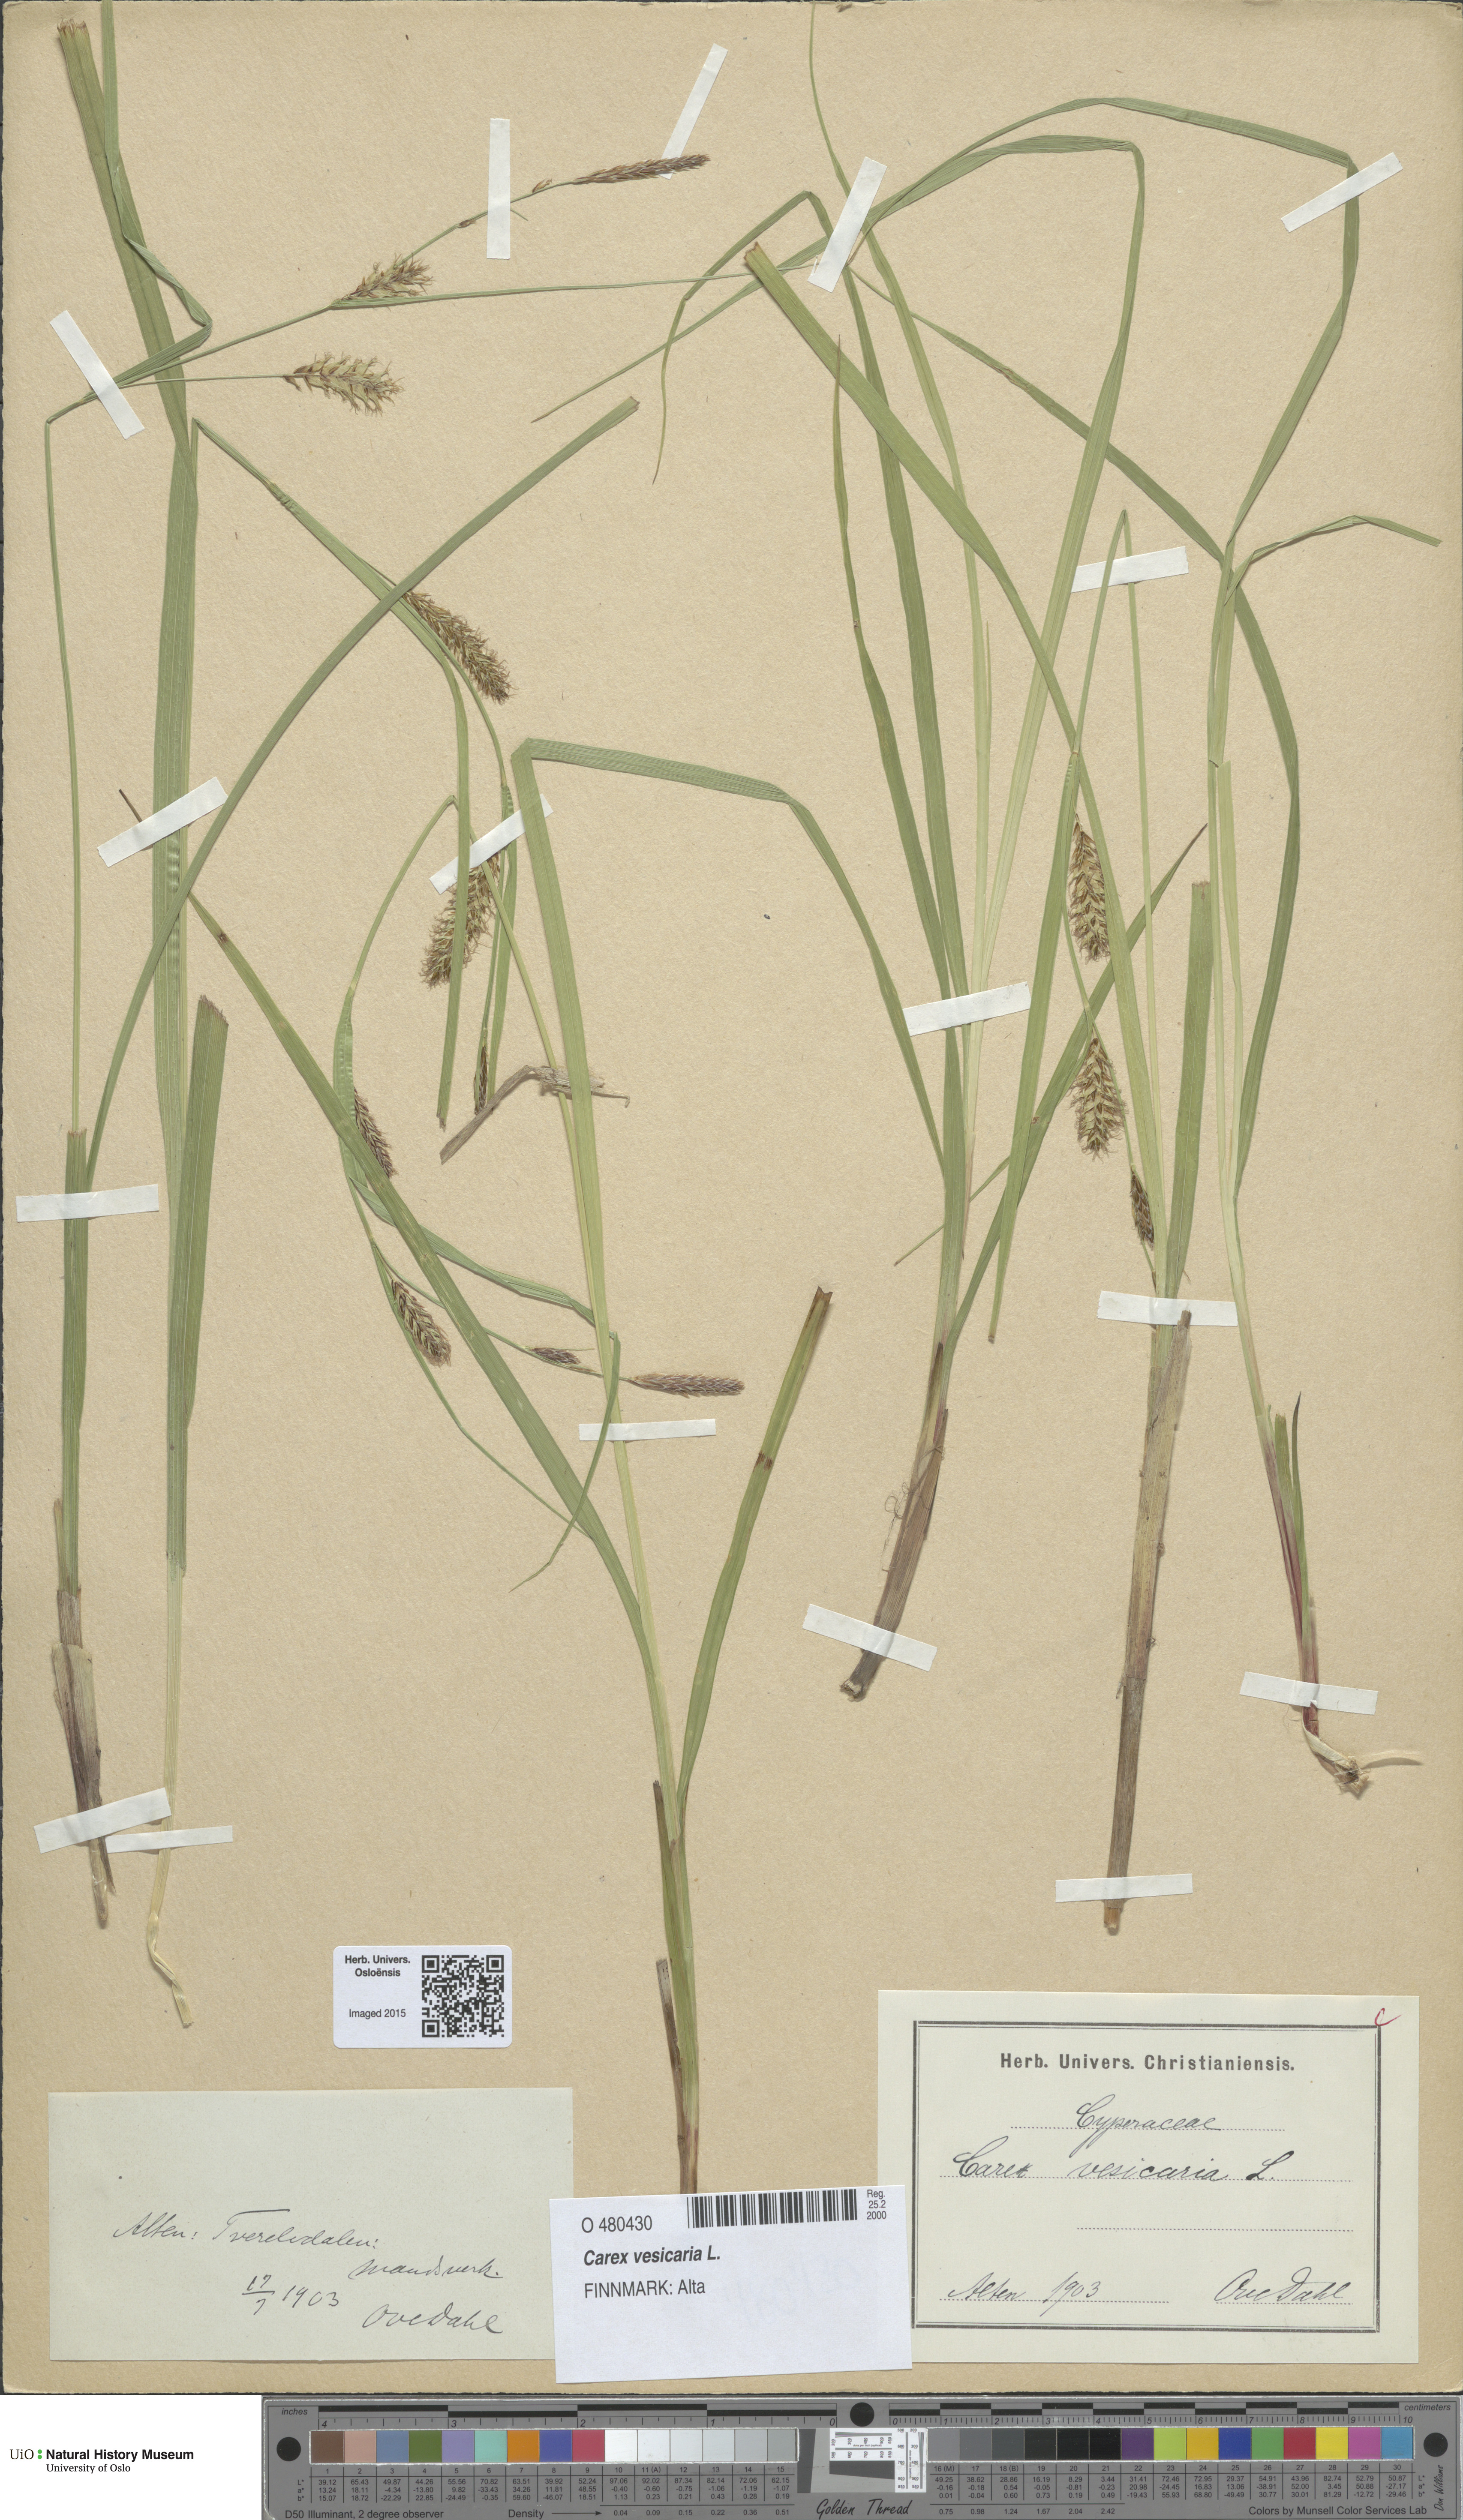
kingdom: Plantae
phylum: Tracheophyta
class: Liliopsida
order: Poales
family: Cyperaceae
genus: Carex
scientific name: Carex vesicaria
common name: Bladder-sedge
